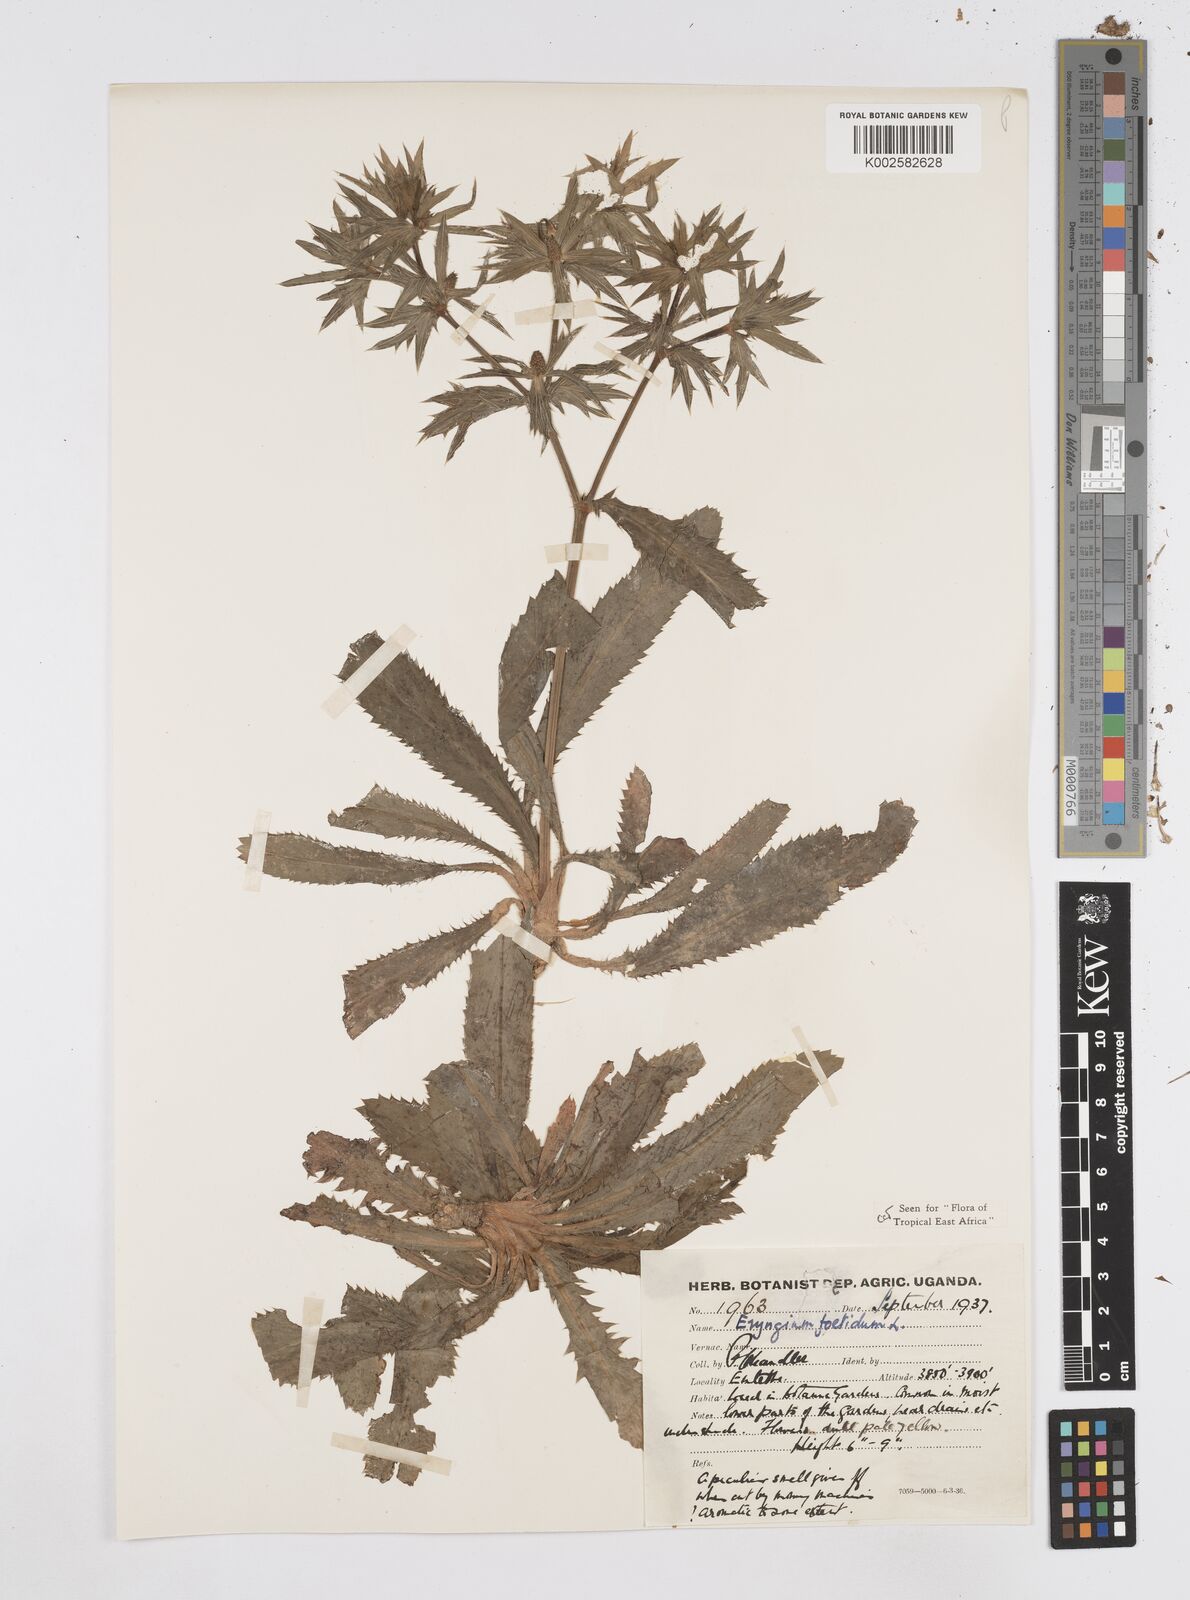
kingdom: Plantae
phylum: Tracheophyta
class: Magnoliopsida
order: Apiales
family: Apiaceae
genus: Eryngium
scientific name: Eryngium foetidum
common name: Fitweed
